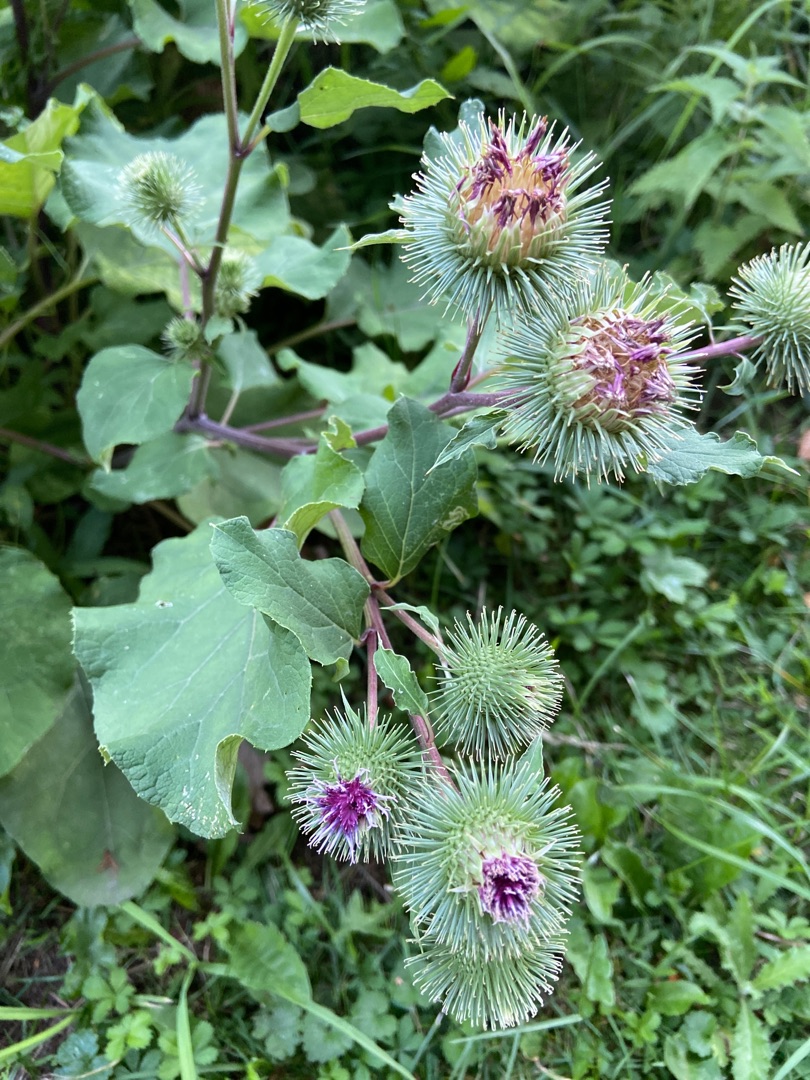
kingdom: Plantae
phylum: Tracheophyta
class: Magnoliopsida
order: Asterales
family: Asteraceae
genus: Arctium
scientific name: Arctium lappa
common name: Glat burre
